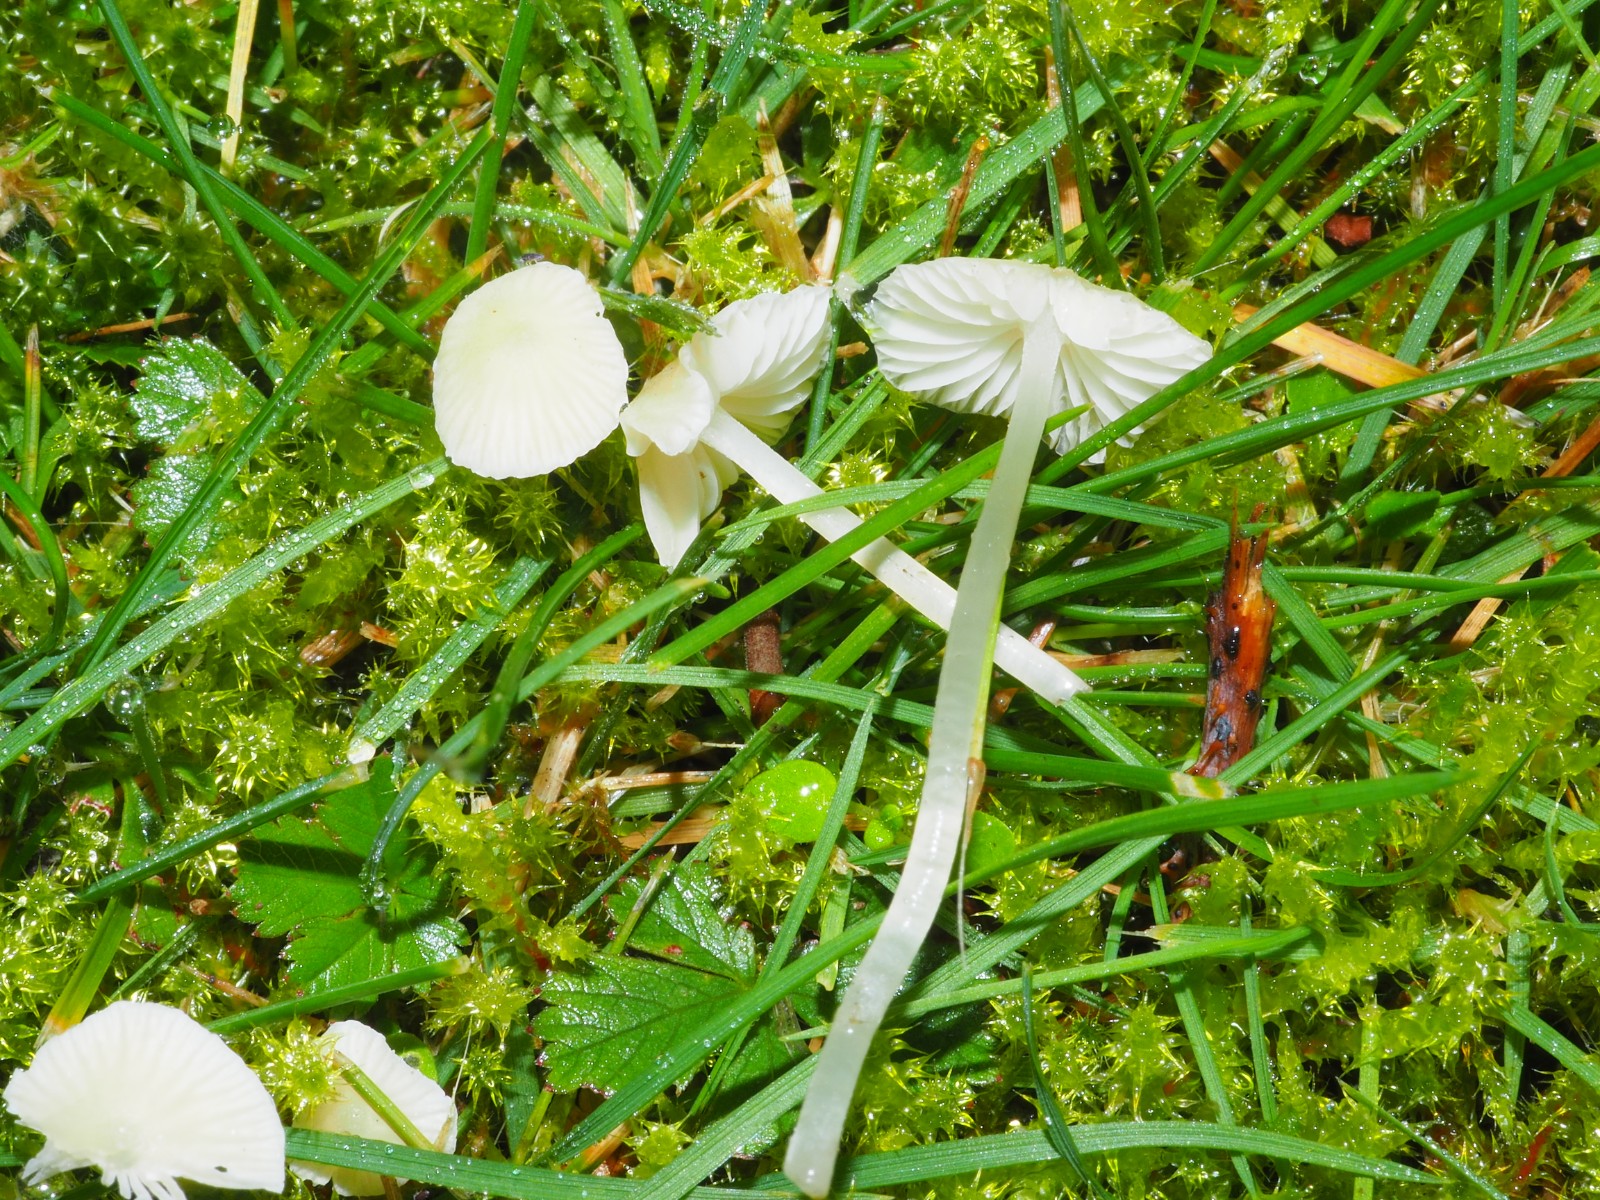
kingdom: Fungi
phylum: Basidiomycota
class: Agaricomycetes
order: Agaricales
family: Mycenaceae
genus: Atheniella
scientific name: Atheniella flavoalba
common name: gulhvid huesvamp
